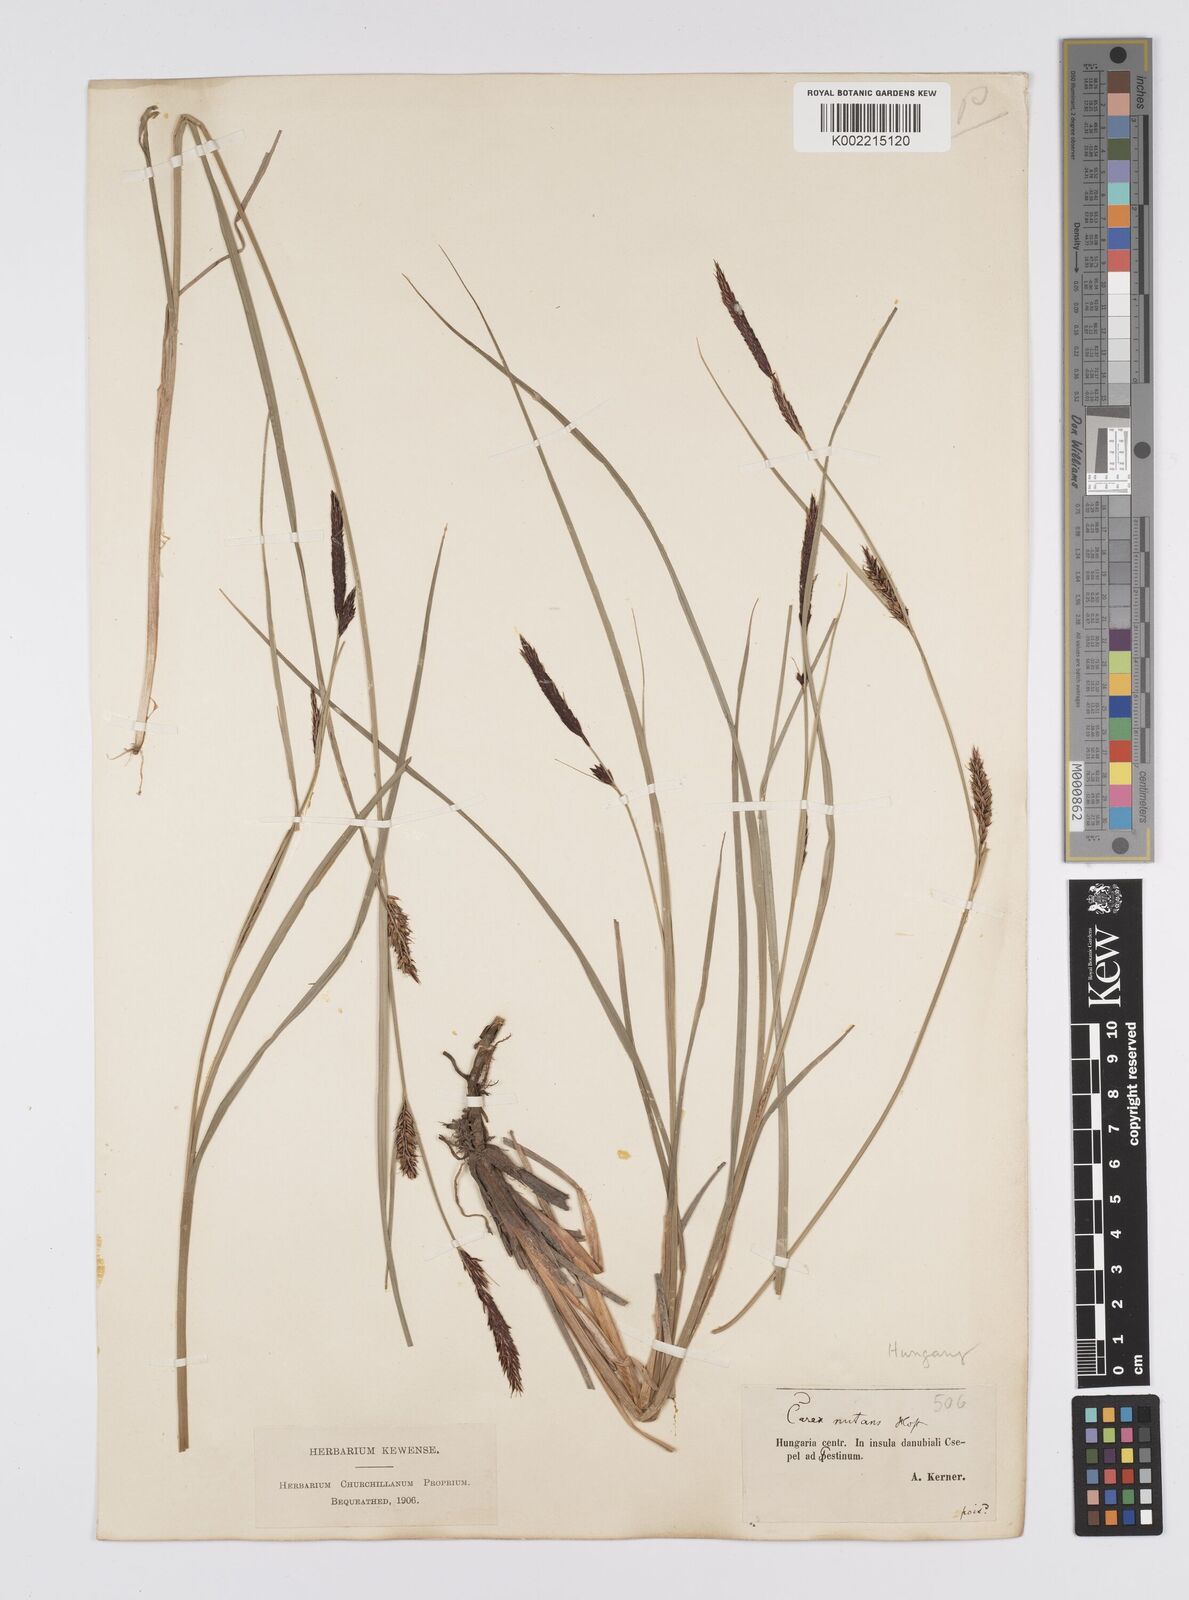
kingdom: Plantae
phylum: Tracheophyta
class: Liliopsida
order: Poales
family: Cyperaceae
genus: Carex
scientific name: Carex melanostachya
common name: Black-spiked sedge
